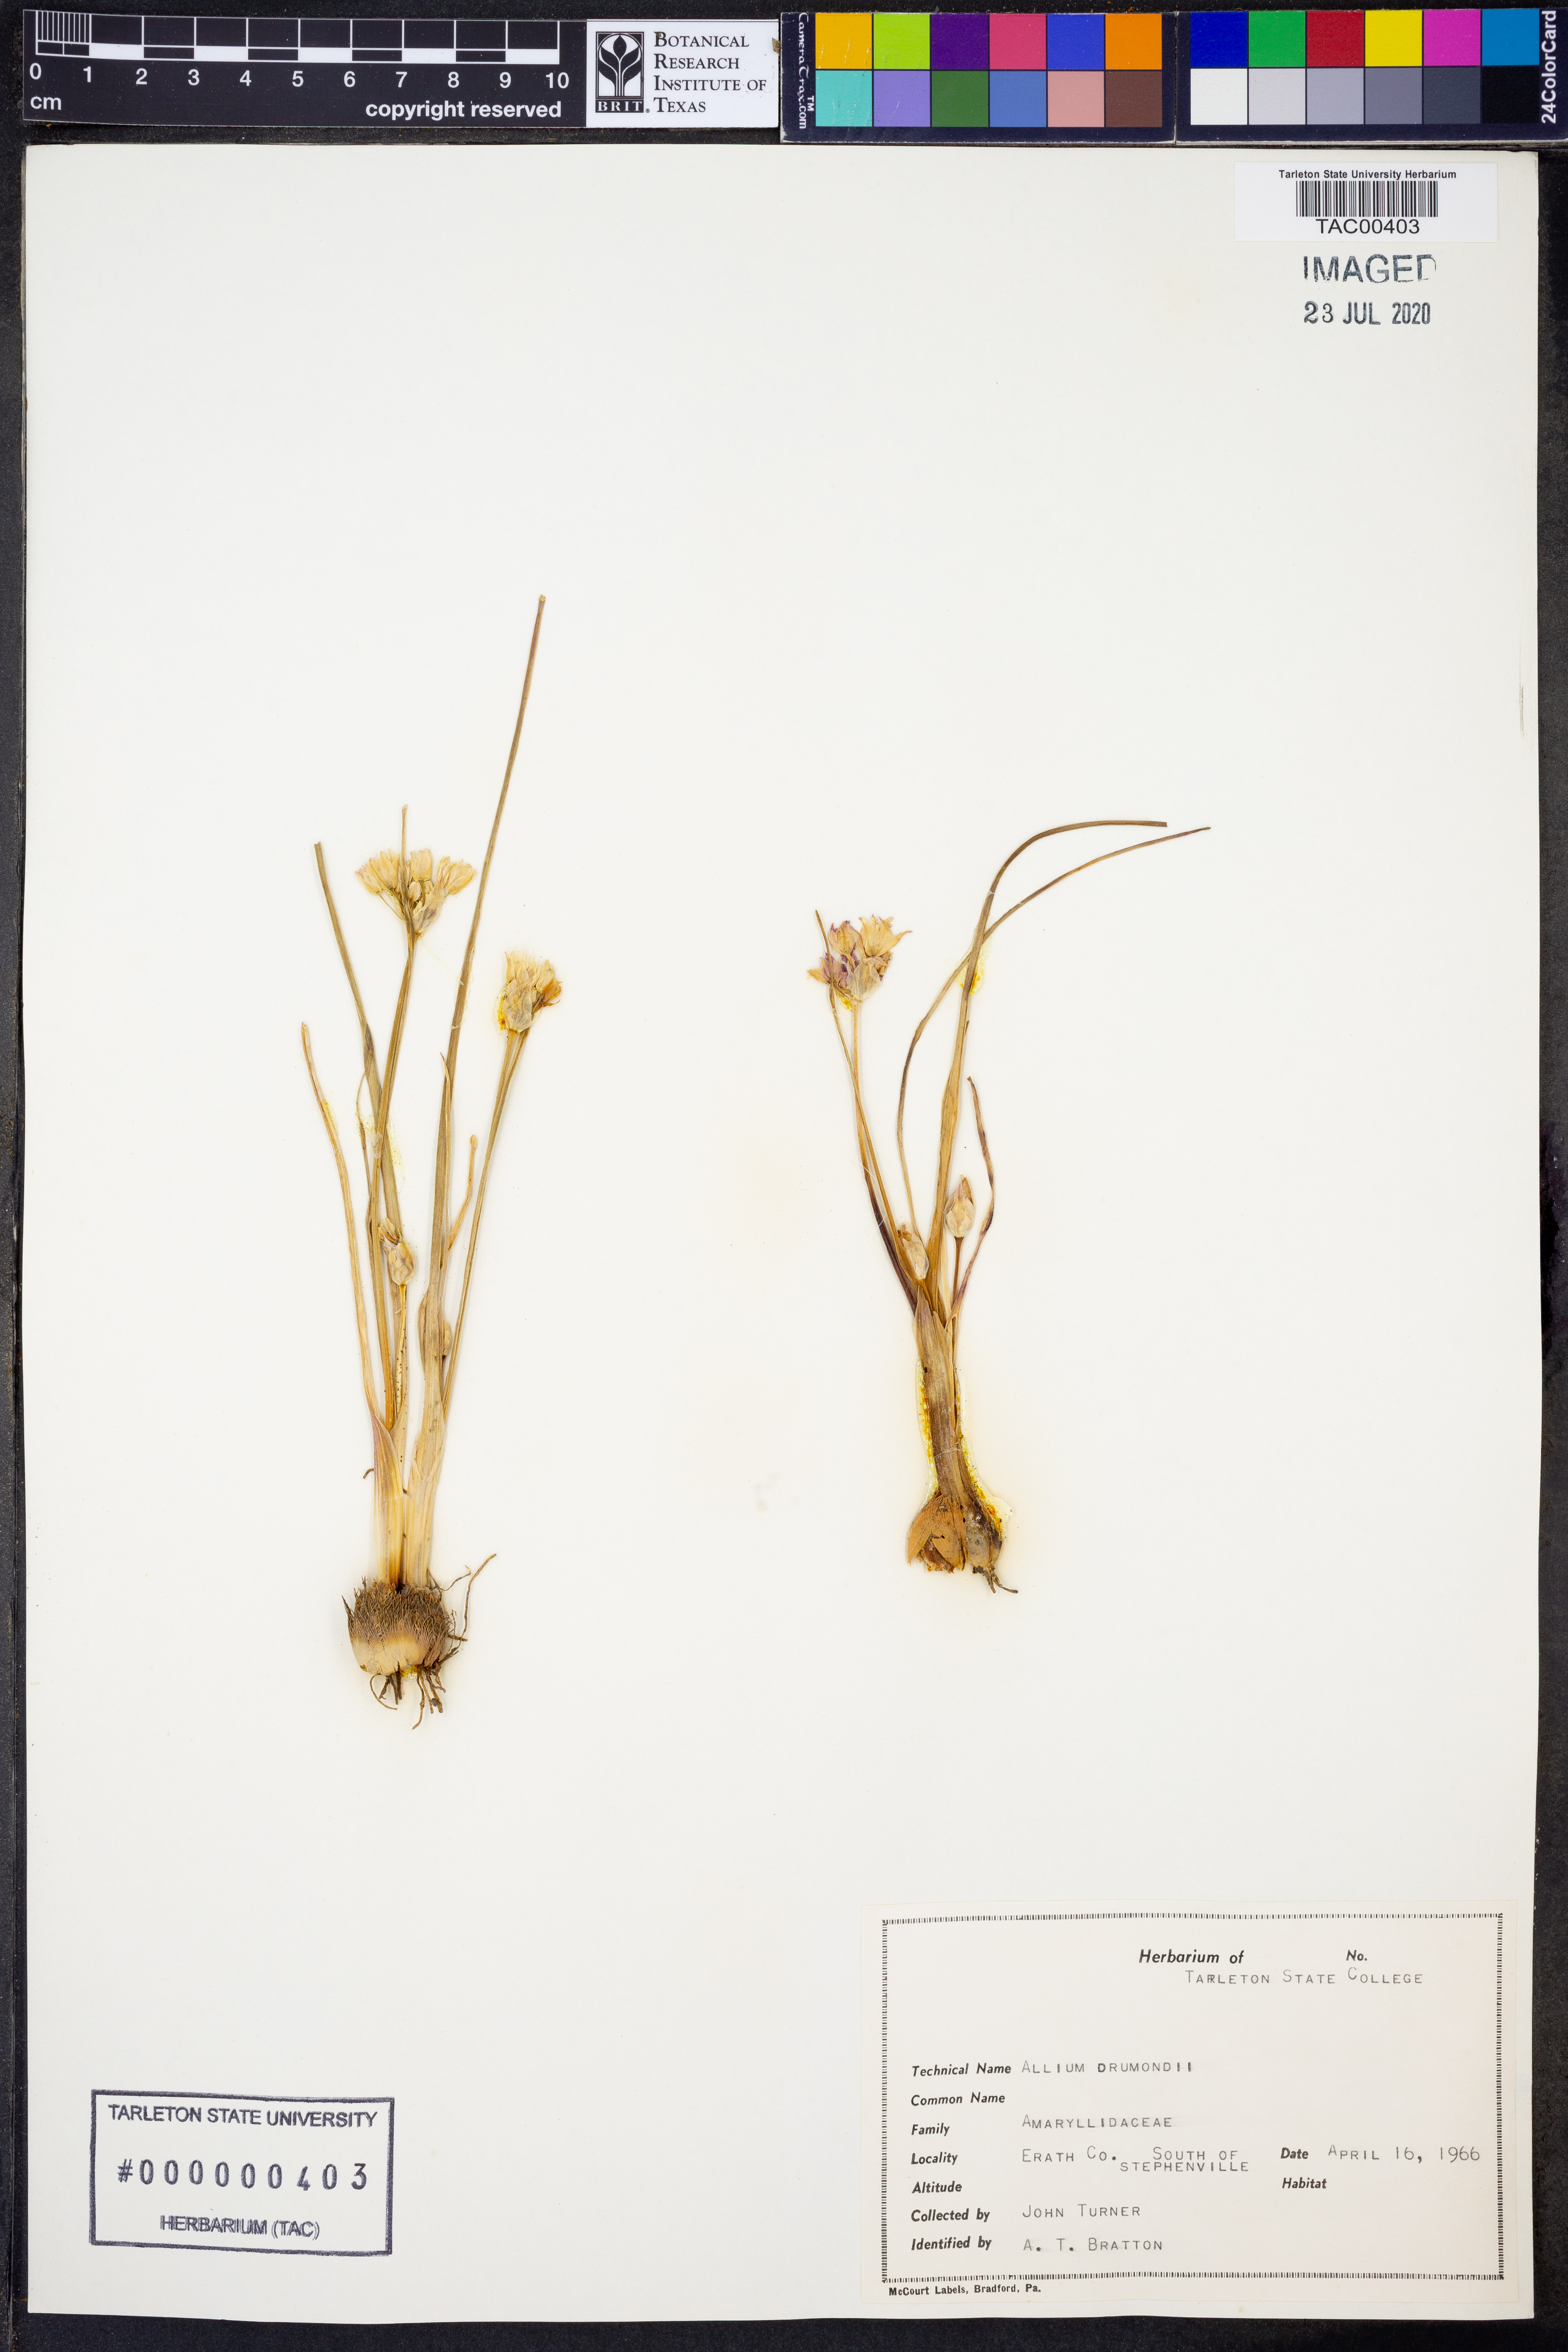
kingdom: Plantae
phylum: Tracheophyta
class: Liliopsida
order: Asparagales
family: Amaryllidaceae
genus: Allium
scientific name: Allium drummondii
